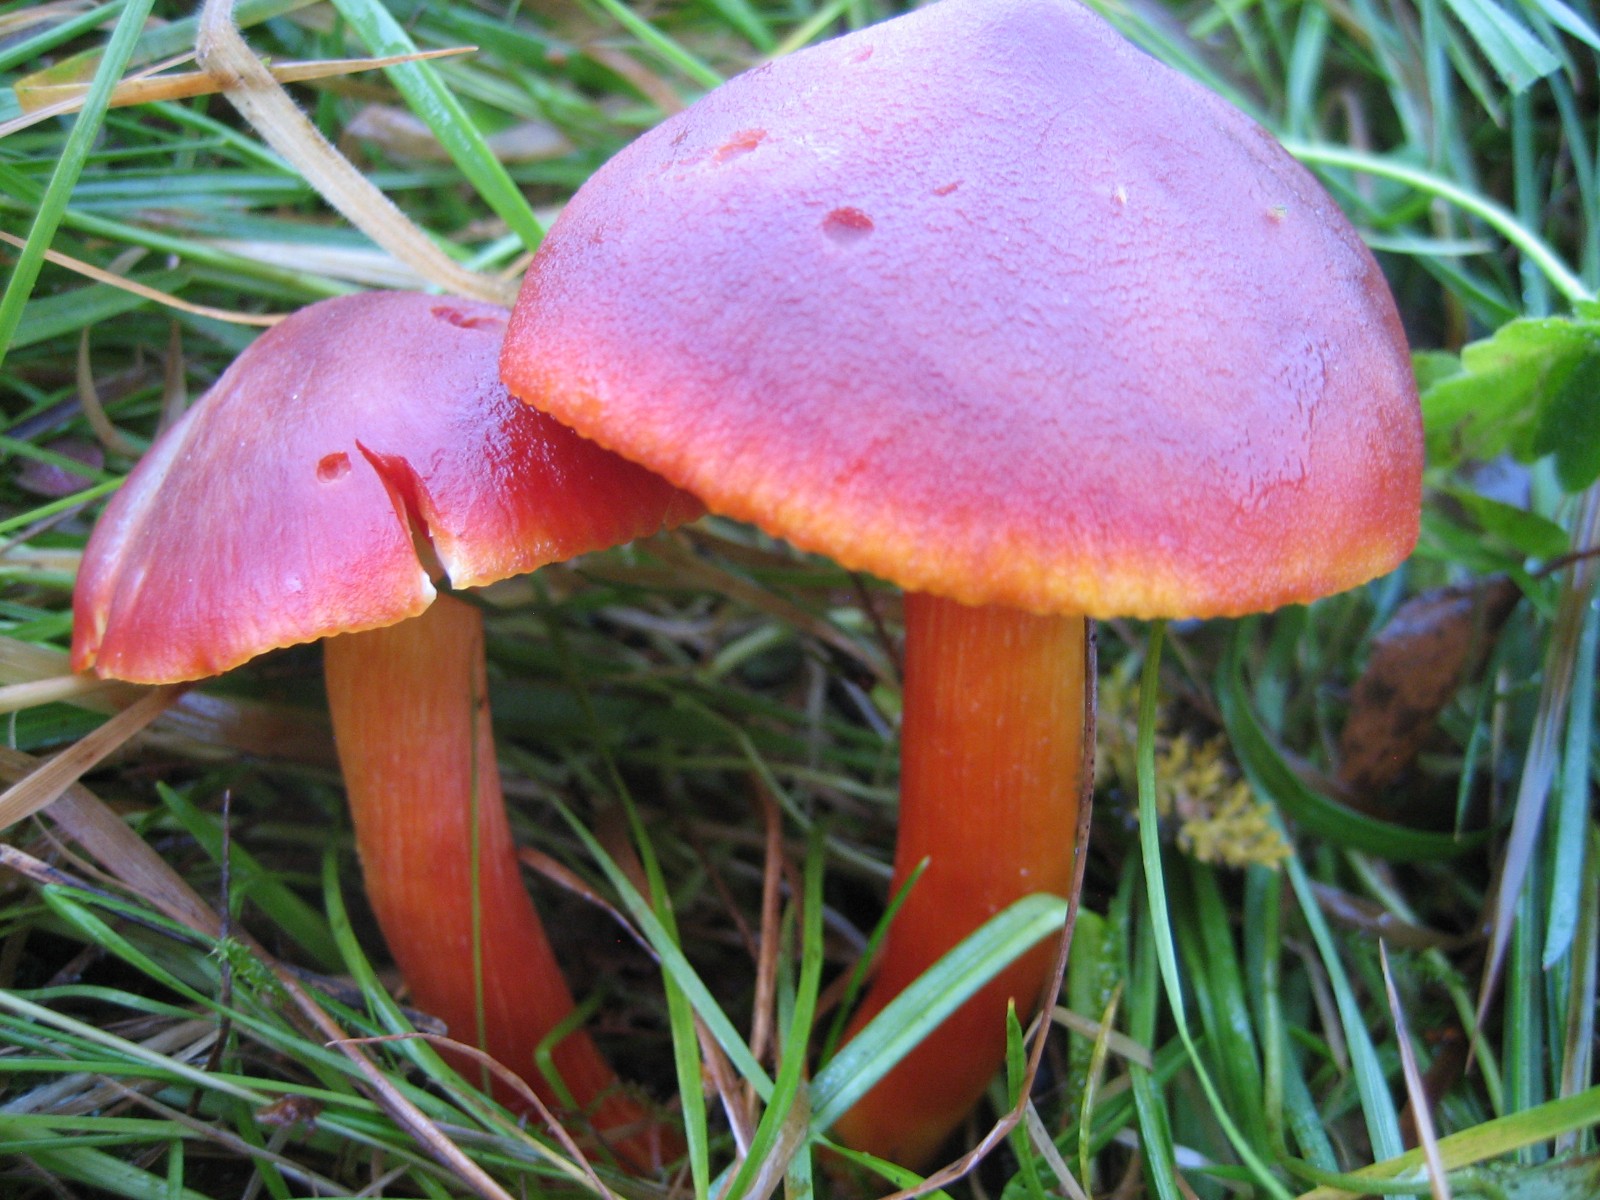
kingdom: Fungi
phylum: Basidiomycota
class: Agaricomycetes
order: Agaricales
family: Hygrophoraceae
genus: Hygrocybe
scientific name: Hygrocybe punicea
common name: skarlagen-vokshat
